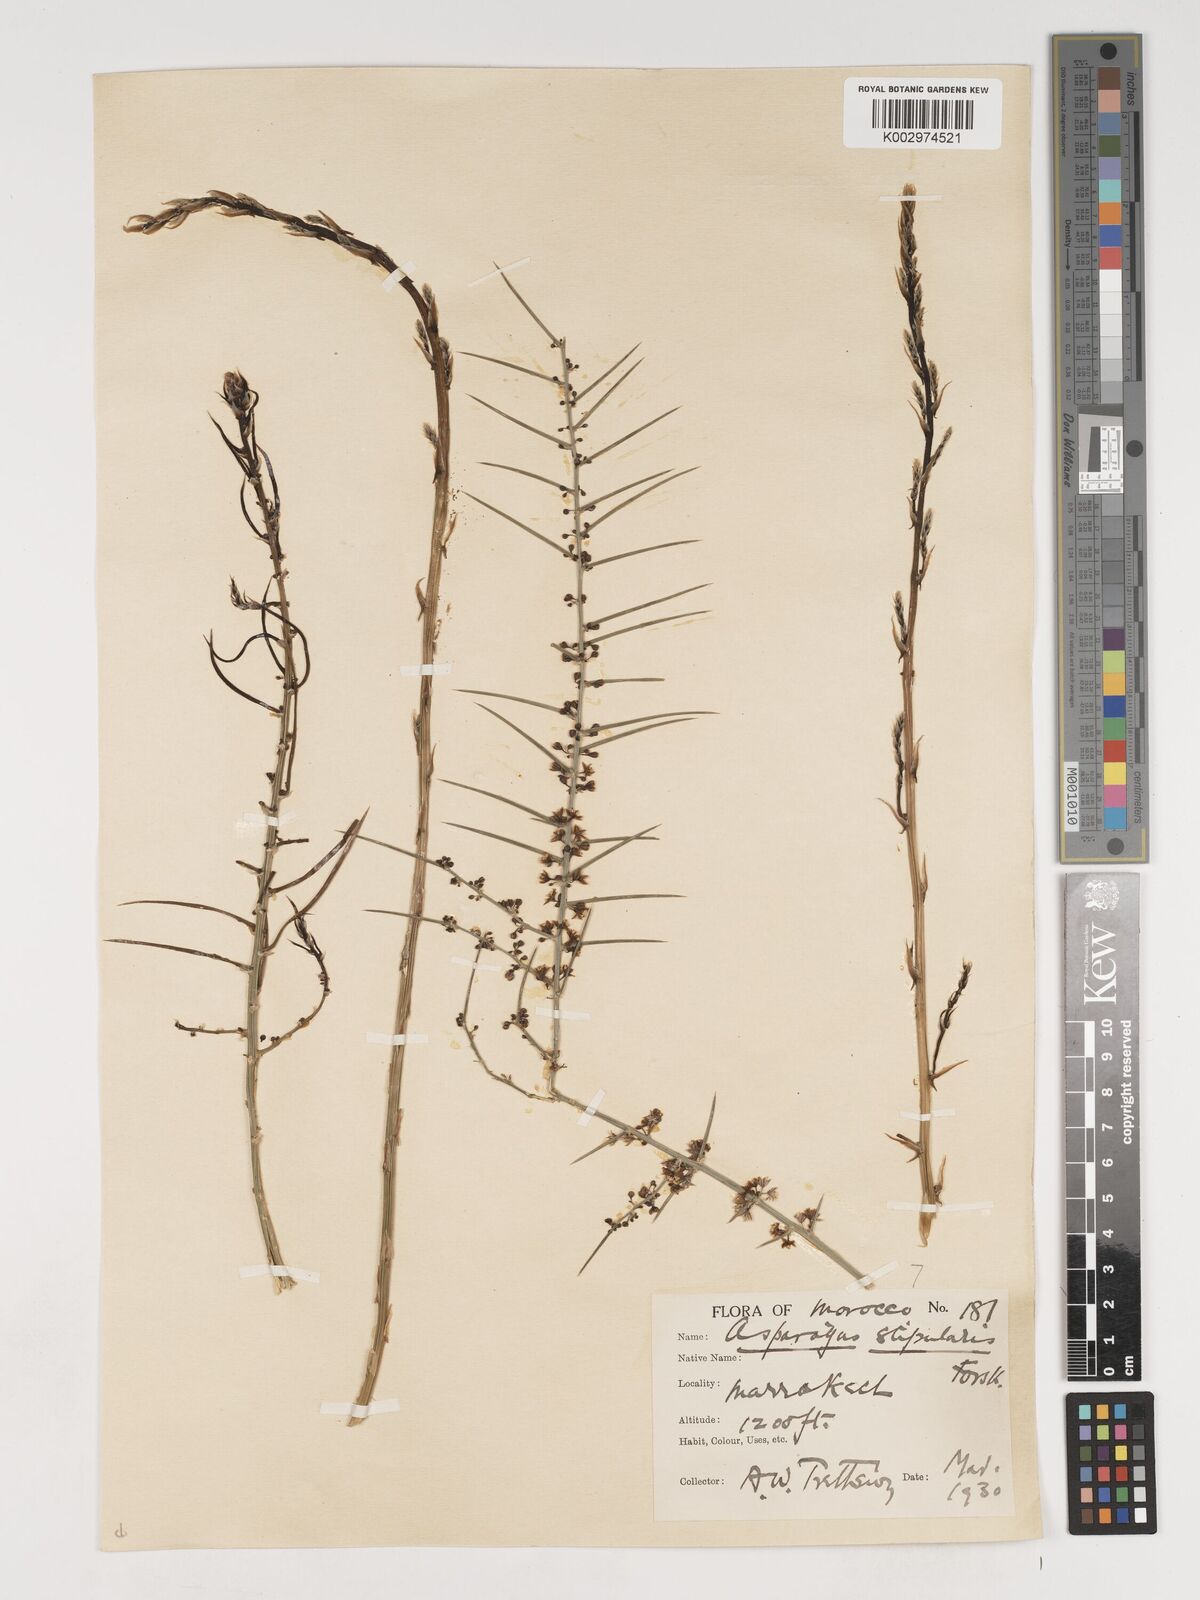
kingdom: Plantae
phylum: Tracheophyta
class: Liliopsida
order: Asparagales
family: Asparagaceae
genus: Asparagus
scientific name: Asparagus horridus
